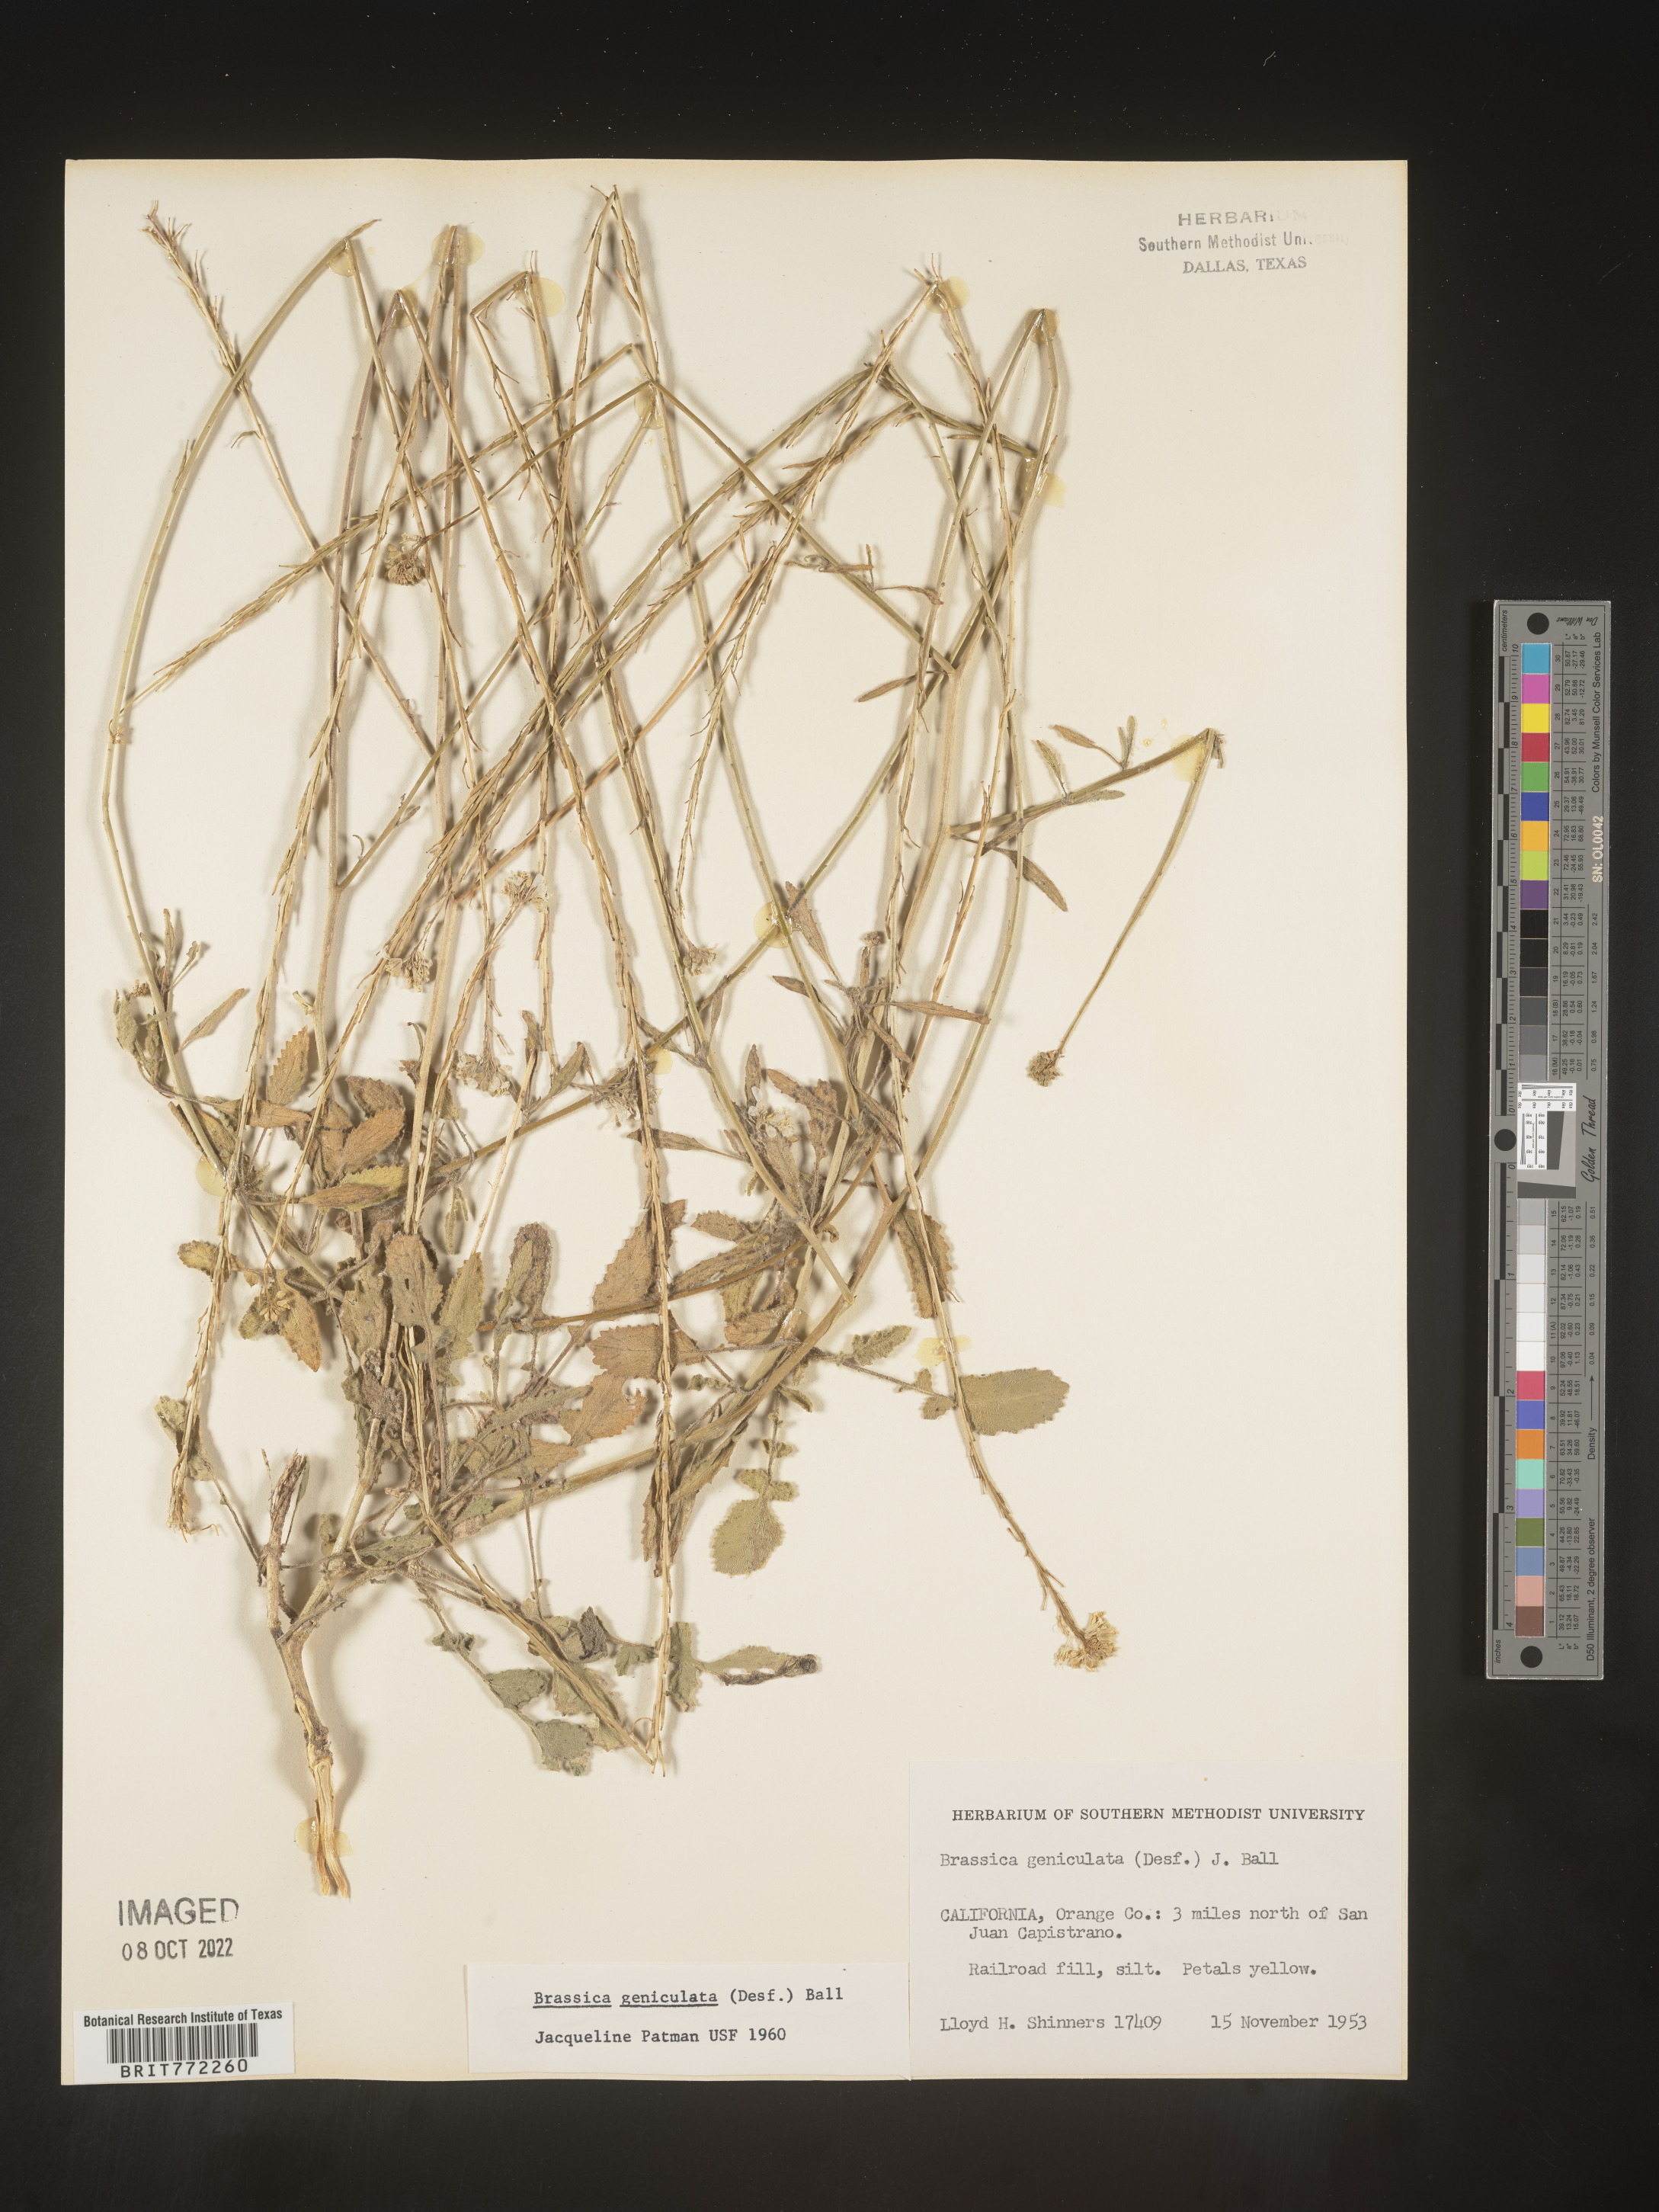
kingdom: Plantae
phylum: Tracheophyta
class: Magnoliopsida
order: Brassicales
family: Brassicaceae
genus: Hirschfeldia
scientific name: Hirschfeldia incana
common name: Hoary mustard
